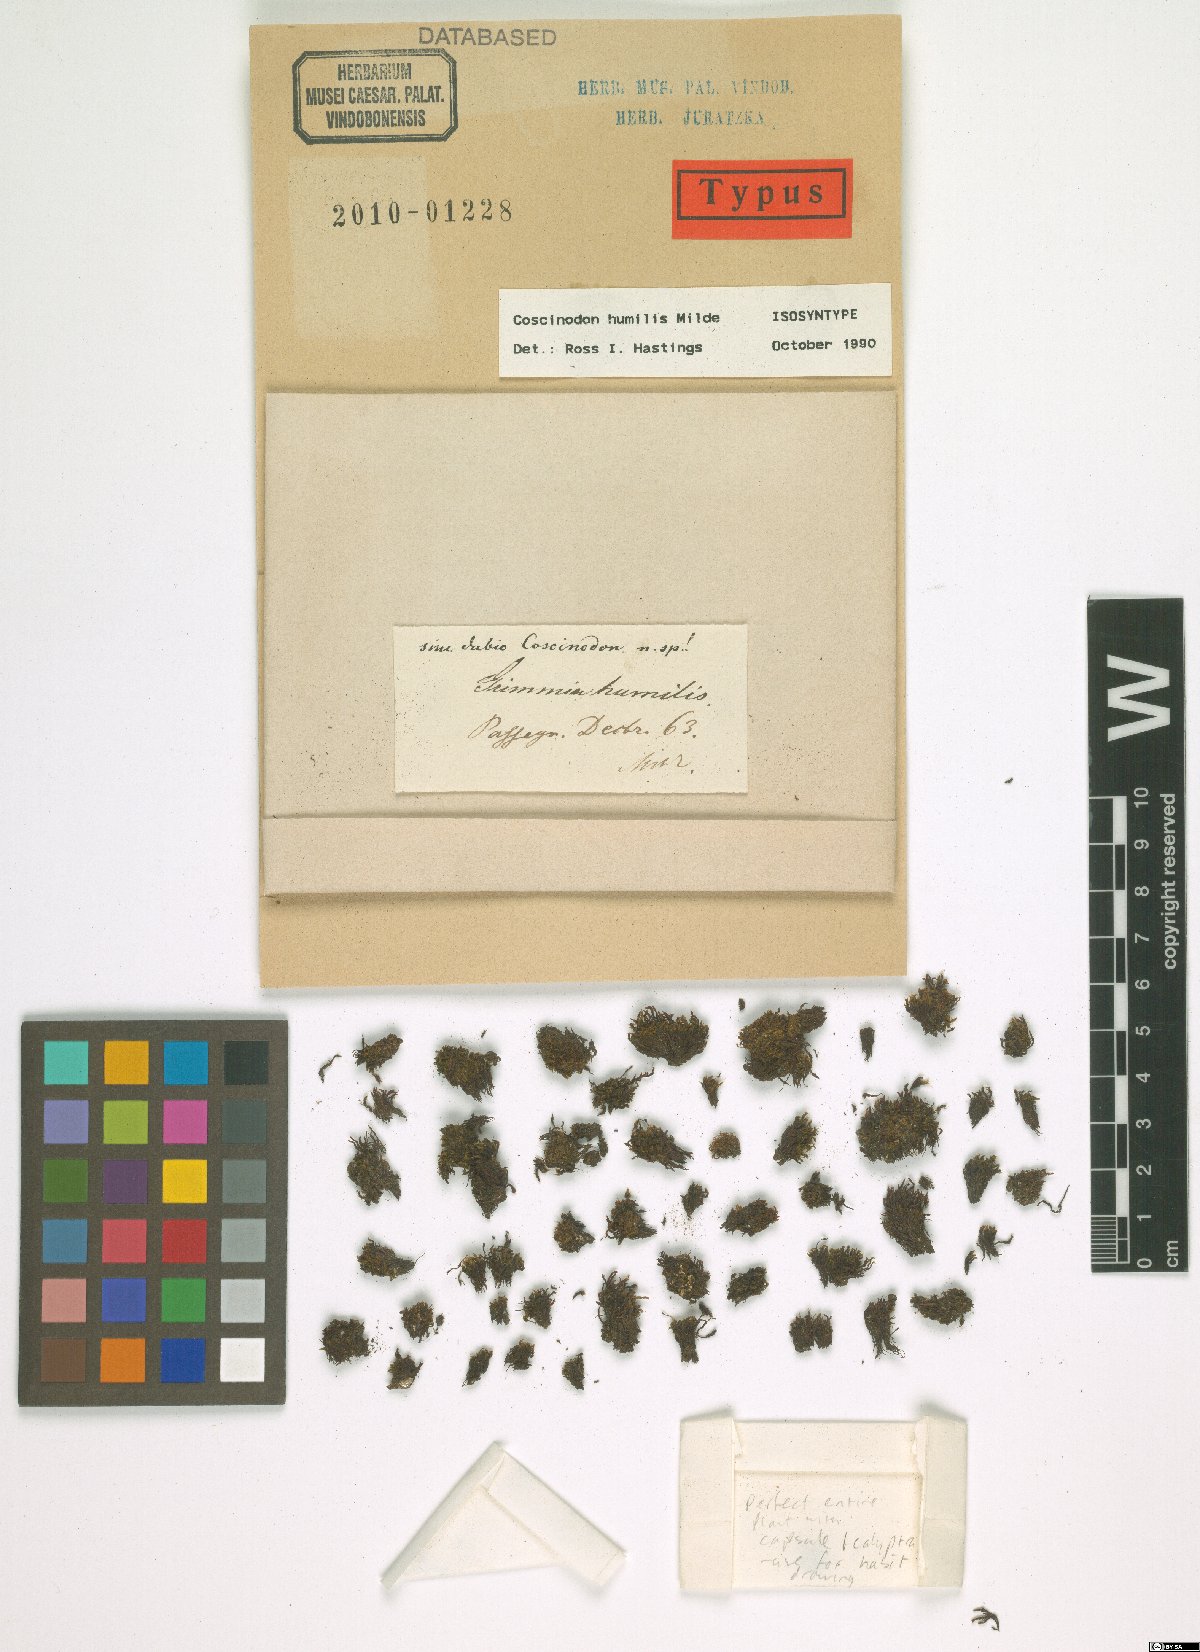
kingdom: Plantae
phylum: Bryophyta
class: Bryopsida
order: Grimmiales
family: Grimmiaceae
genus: Coscinodon
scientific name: Coscinodon humilis
